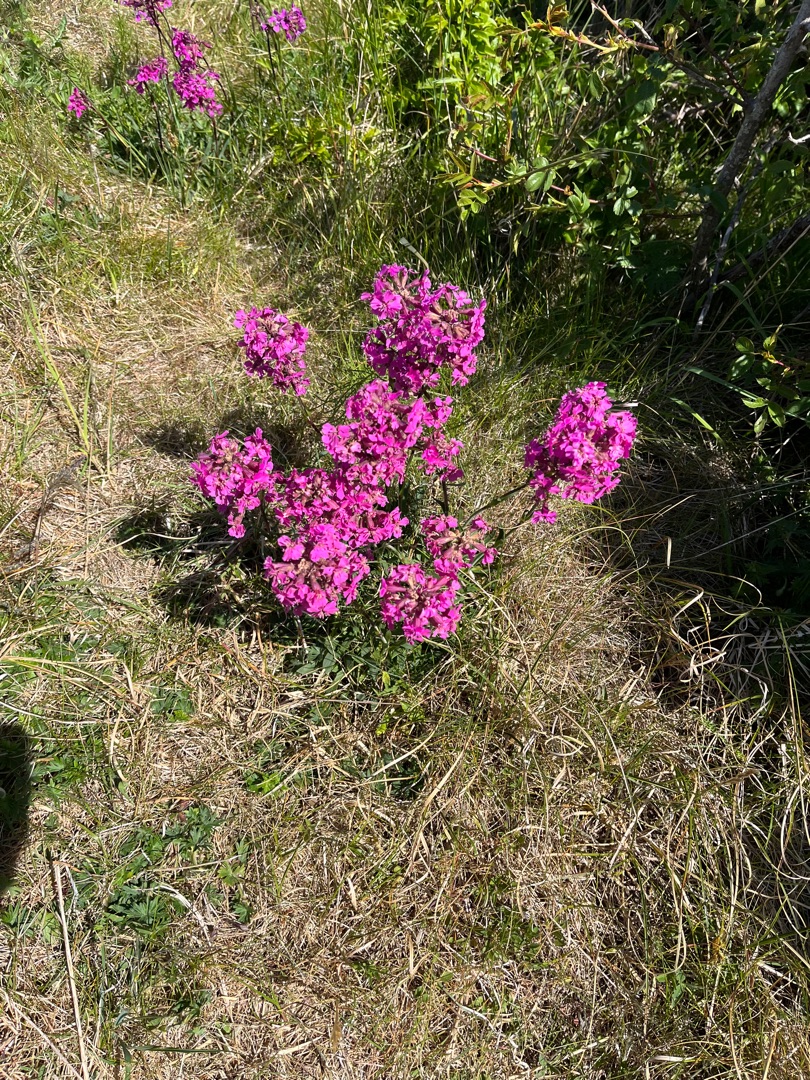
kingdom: Plantae
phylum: Tracheophyta
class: Magnoliopsida
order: Caryophyllales
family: Caryophyllaceae
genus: Viscaria
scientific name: Viscaria vulgaris
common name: Tjærenellike
